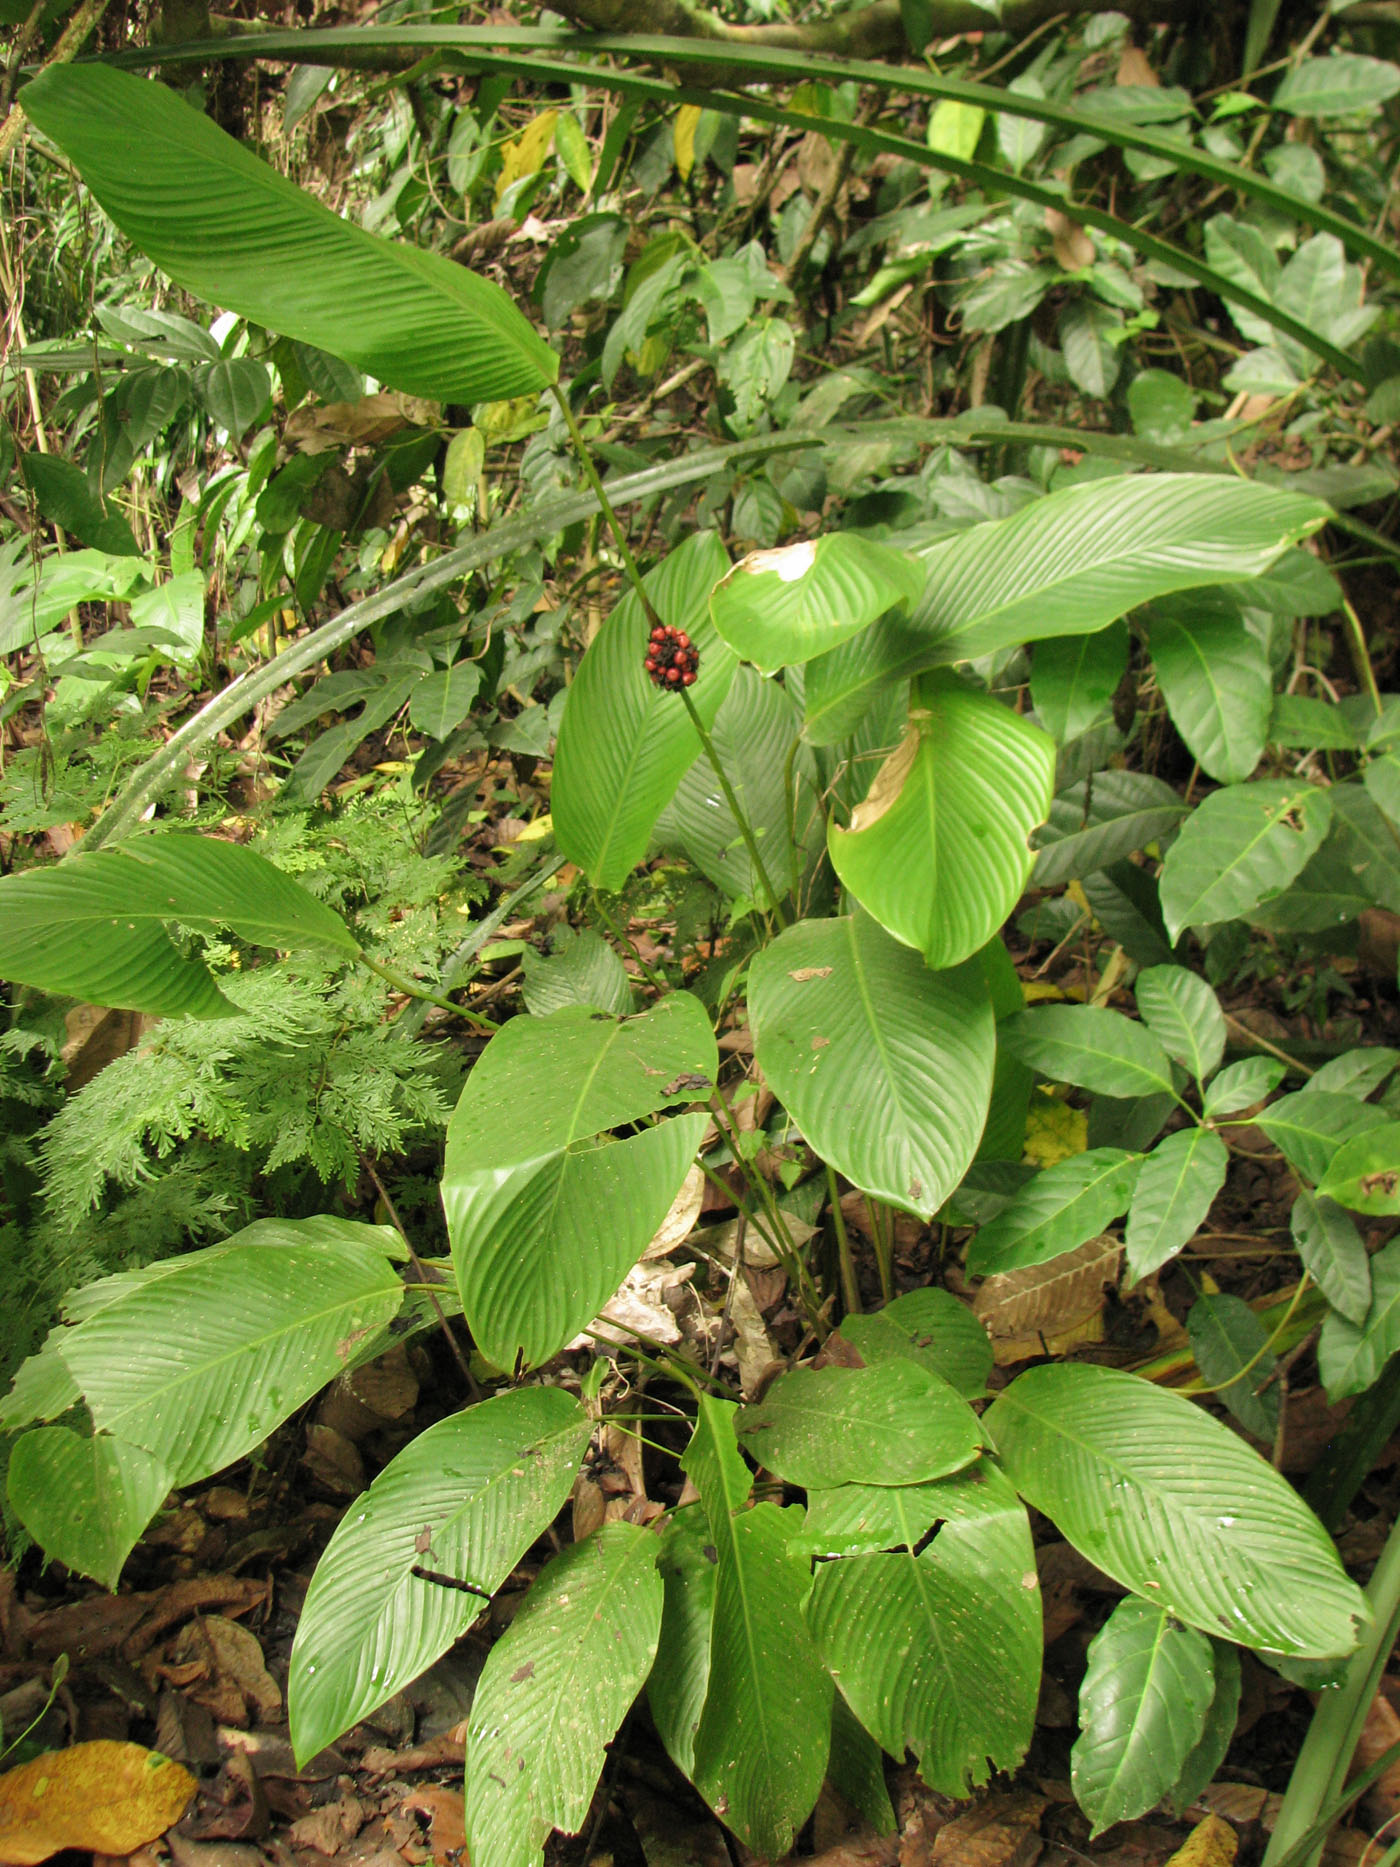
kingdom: Plantae
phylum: Tracheophyta
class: Liliopsida
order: Zingiberales
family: Marantaceae
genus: Phrynium
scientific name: Phrynium pubinerve
